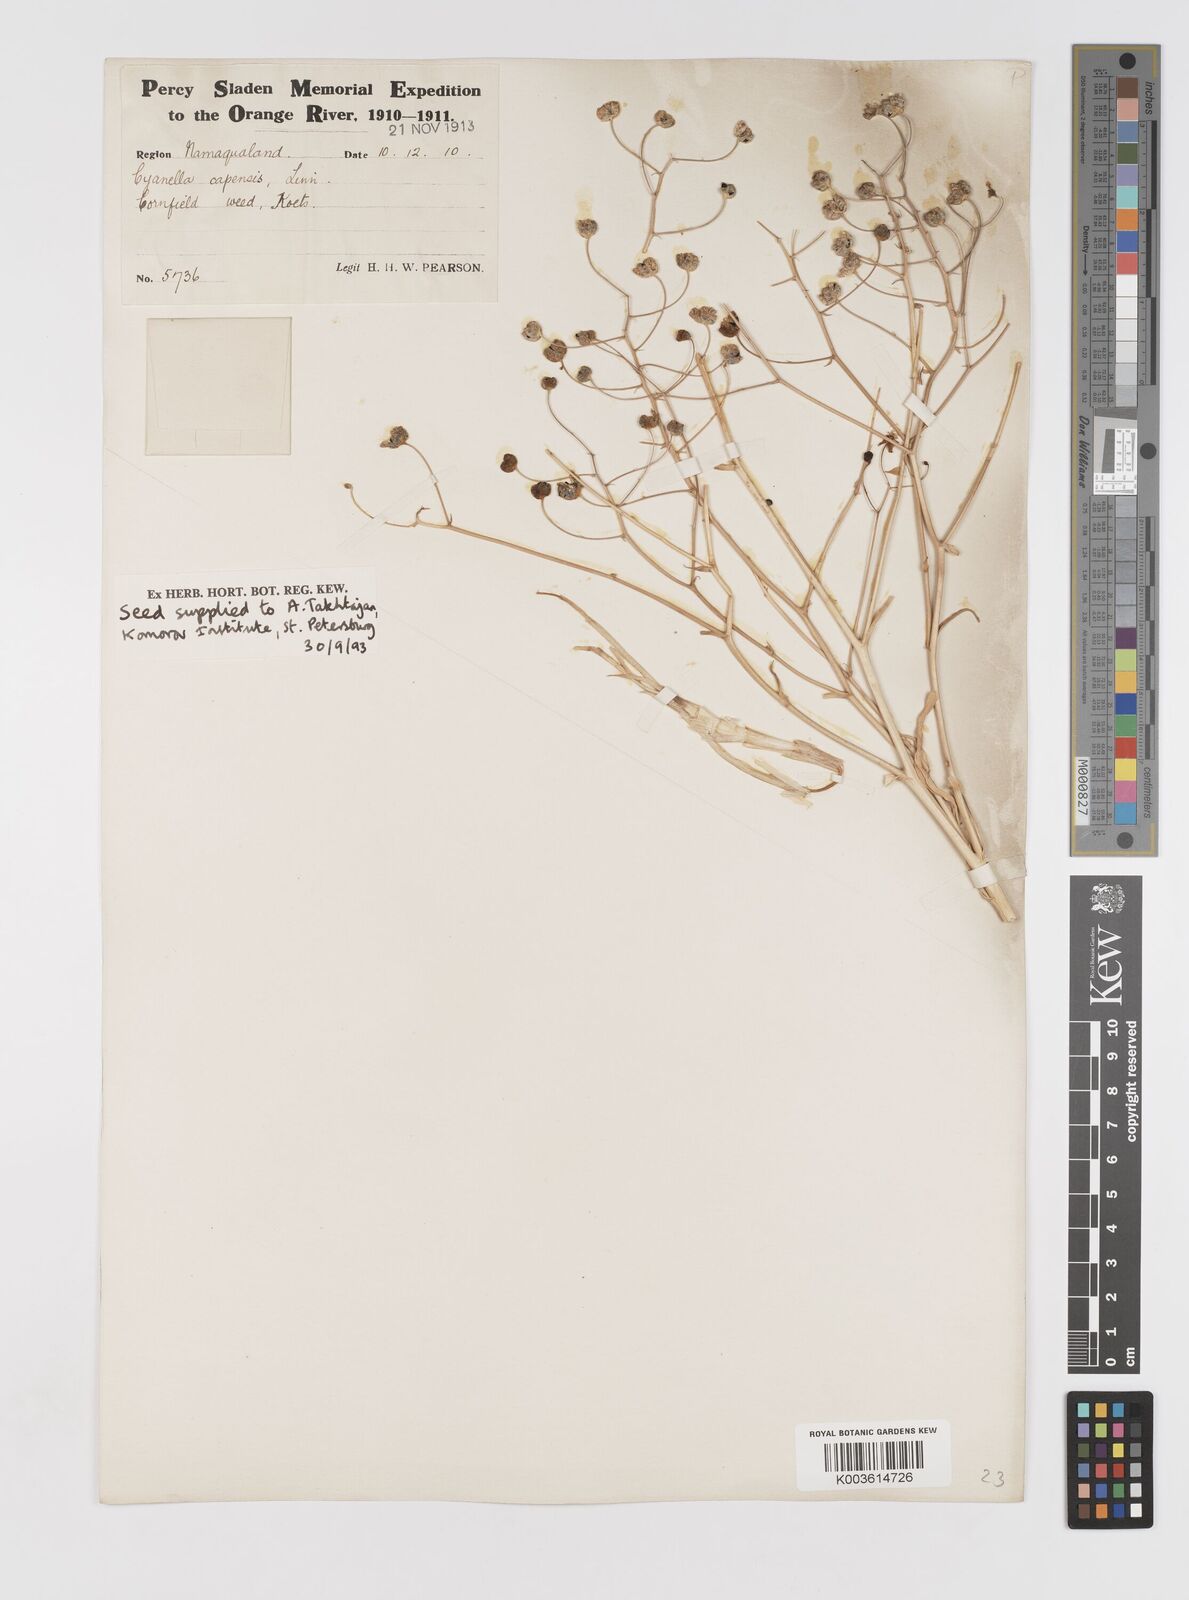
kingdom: Plantae
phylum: Tracheophyta
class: Liliopsida
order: Asparagales
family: Tecophilaeaceae
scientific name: Tecophilaeaceae
